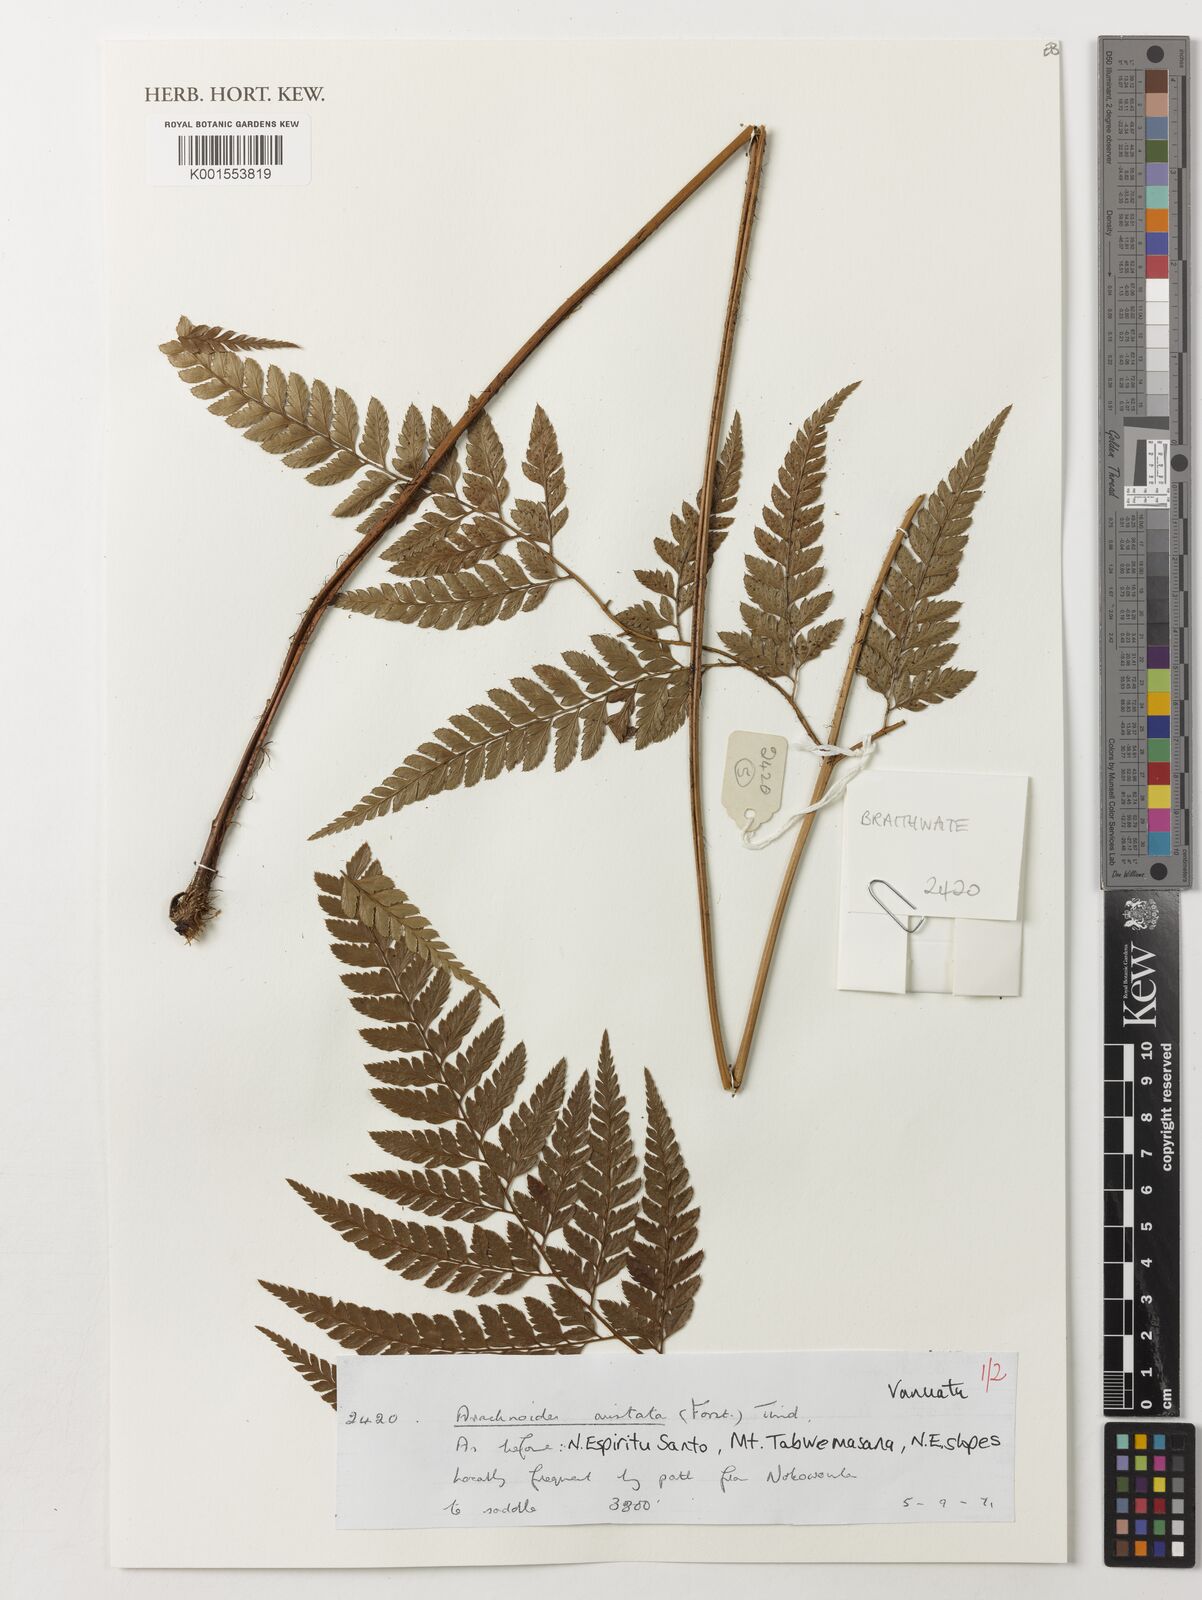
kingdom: Plantae
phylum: Tracheophyta
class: Polypodiopsida
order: Polypodiales
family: Dryopteridaceae
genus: Arachniodes
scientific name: Arachniodes aristata
